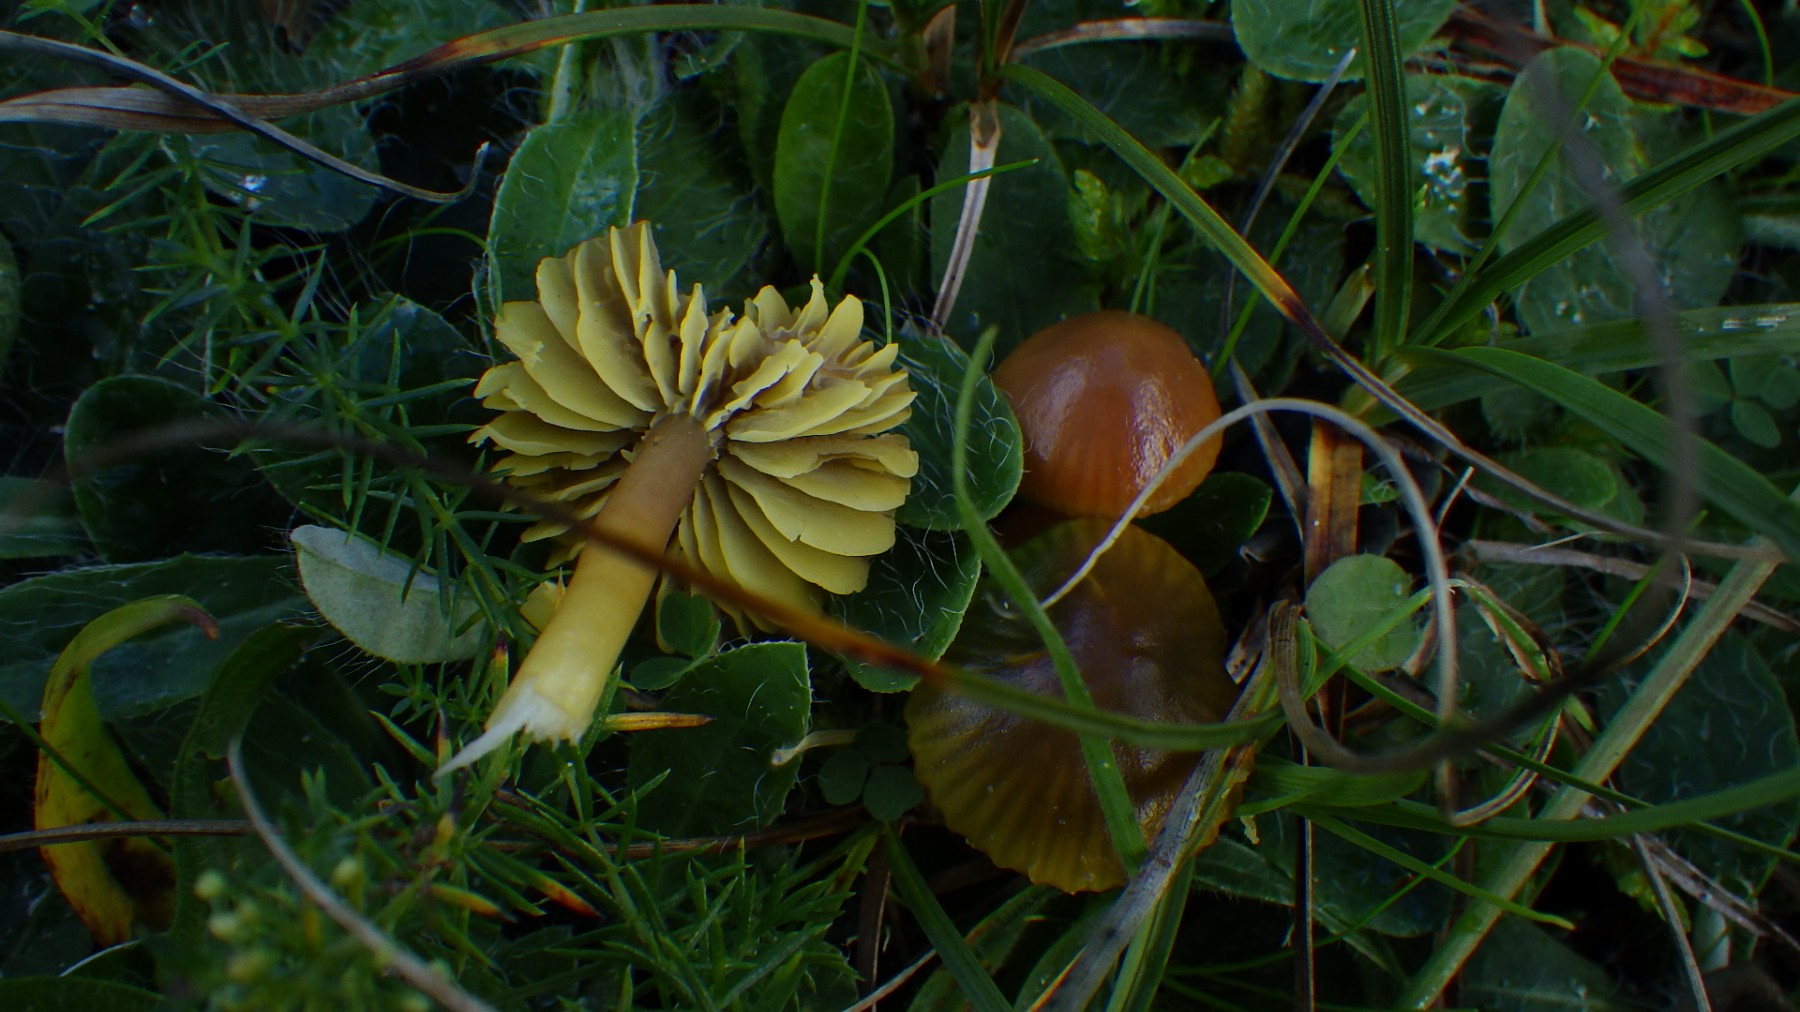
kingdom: Fungi
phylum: Basidiomycota
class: Agaricomycetes
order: Agaricales
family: Hygrophoraceae
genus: Gliophorus
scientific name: Gliophorus psittacinus
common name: papegøje-vokshat
